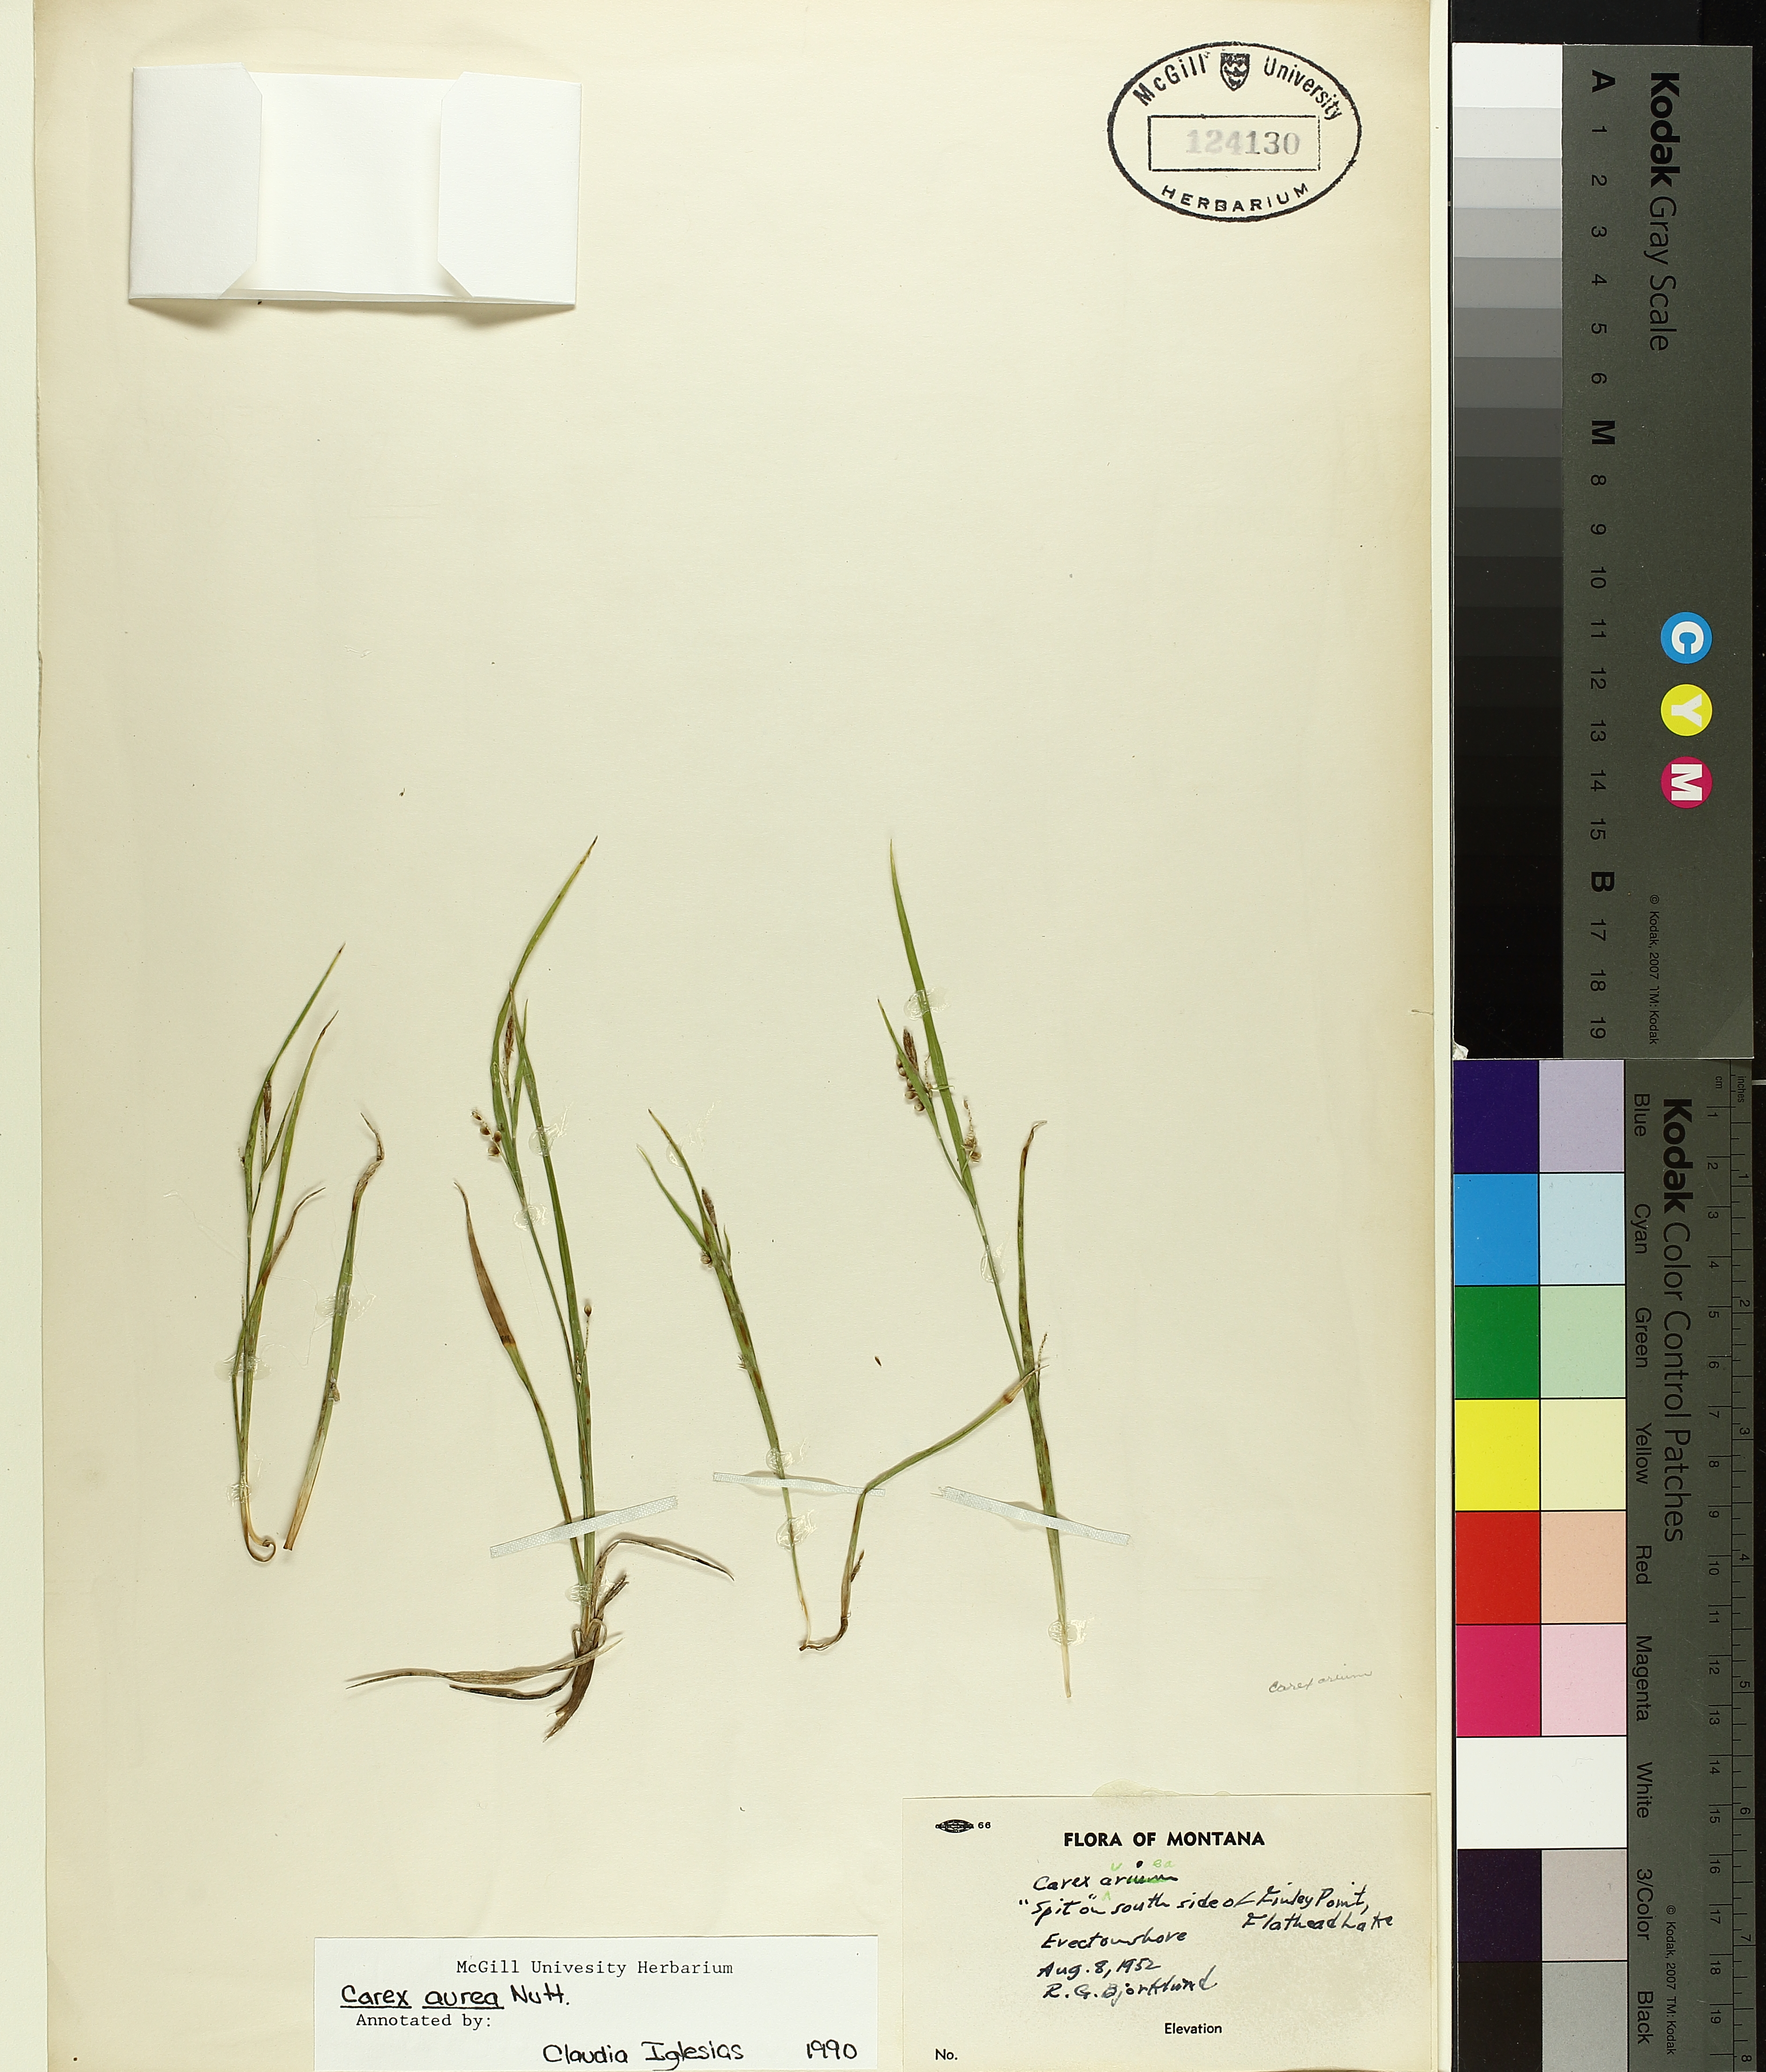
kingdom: Plantae
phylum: Tracheophyta
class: Liliopsida
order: Poales
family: Cyperaceae
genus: Carex
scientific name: Carex aurea
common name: Golden sedge
